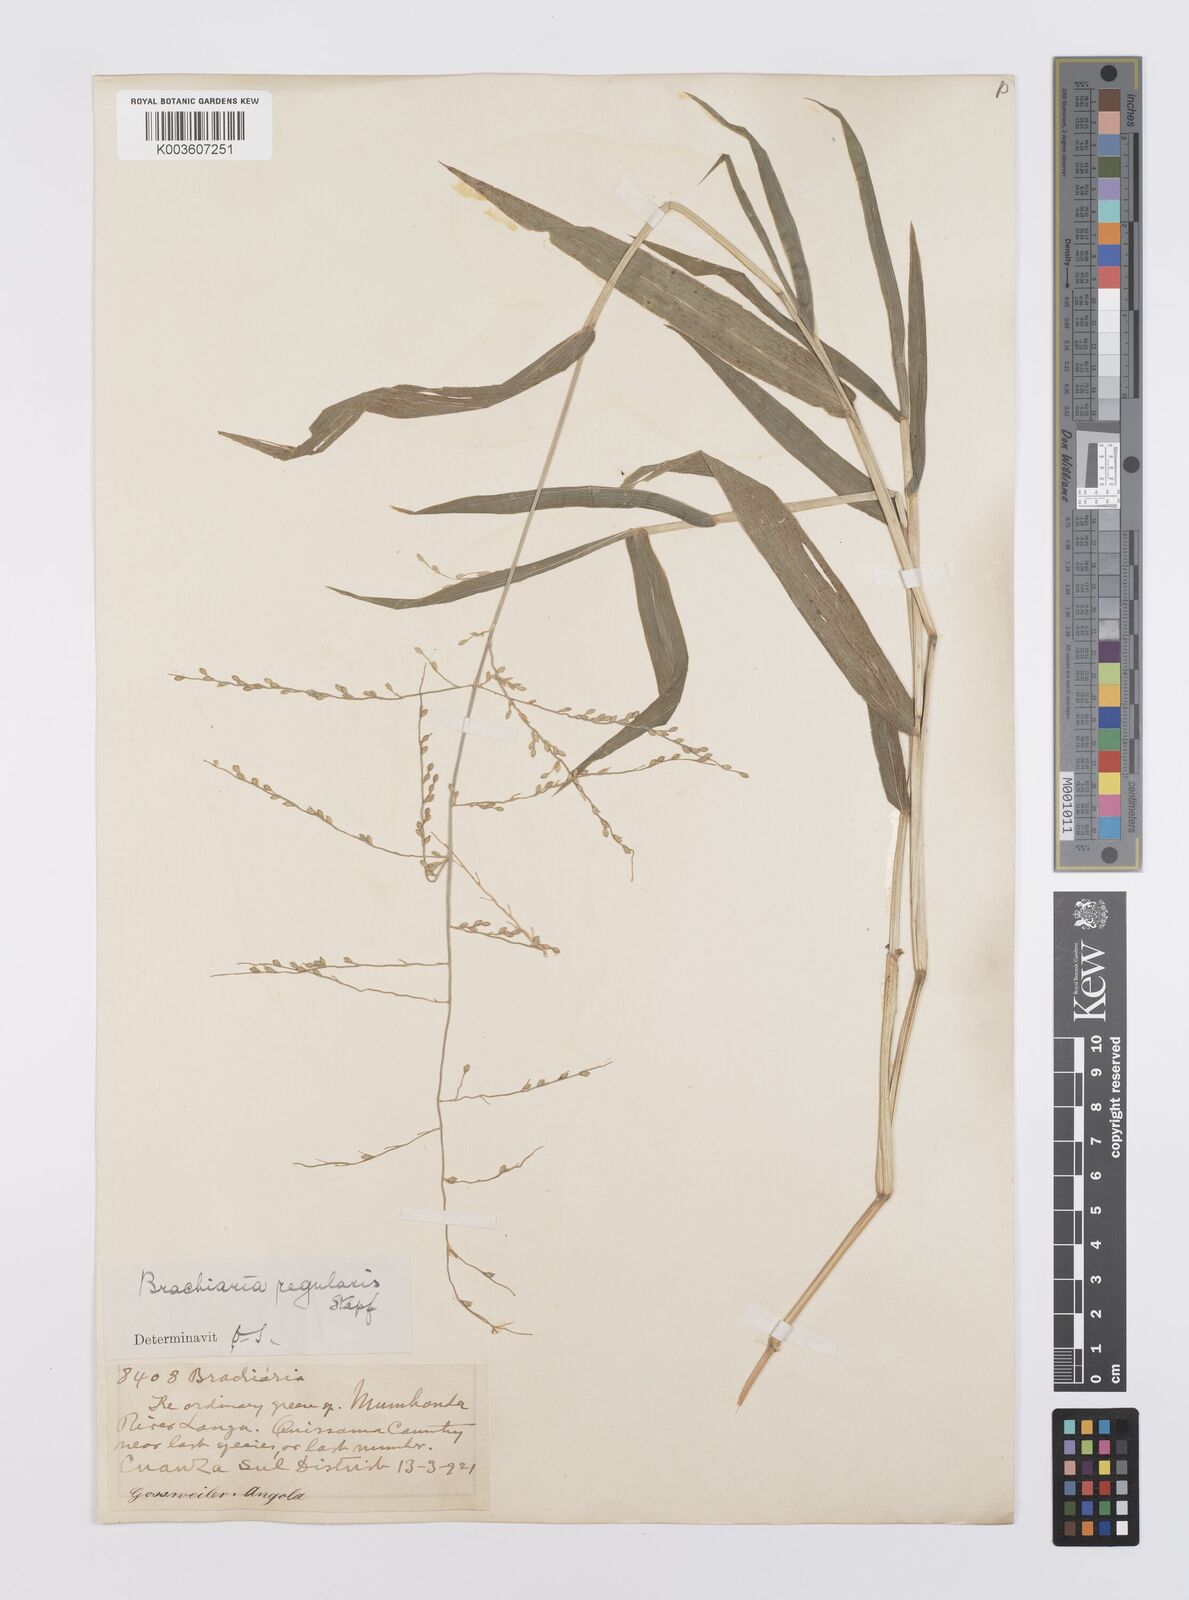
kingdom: Plantae
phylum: Tracheophyta
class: Liliopsida
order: Poales
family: Poaceae
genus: Urochloa
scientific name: Urochloa deflexa
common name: Guinea millet
